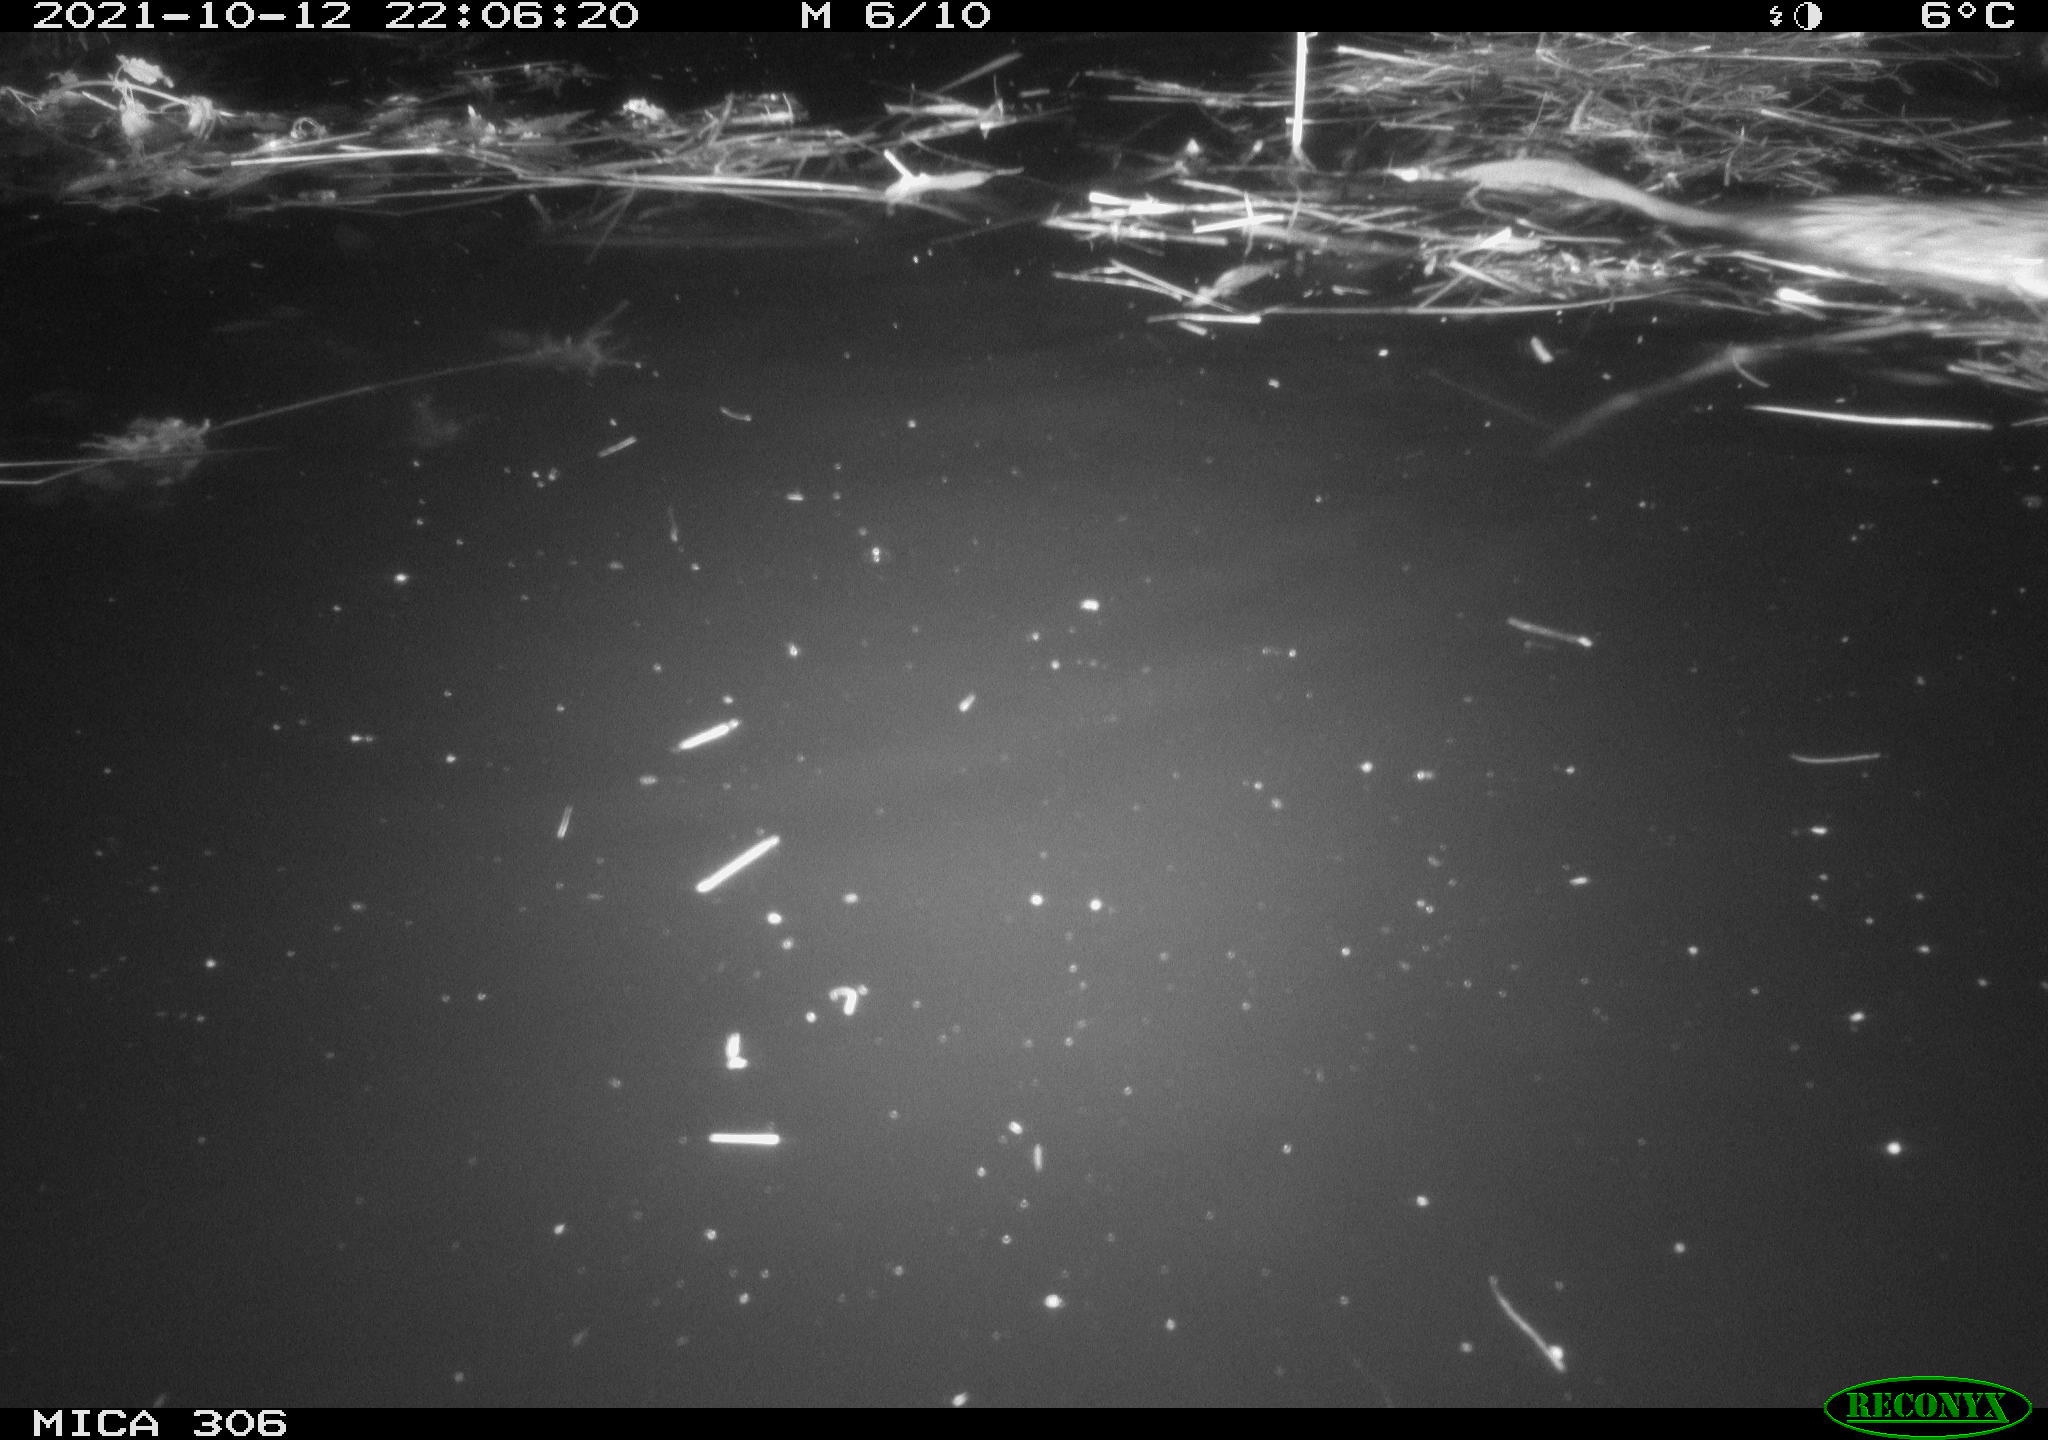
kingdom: Animalia
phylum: Chordata
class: Mammalia
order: Rodentia
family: Cricetidae
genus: Ondatra
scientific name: Ondatra zibethicus
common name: Muskrat
